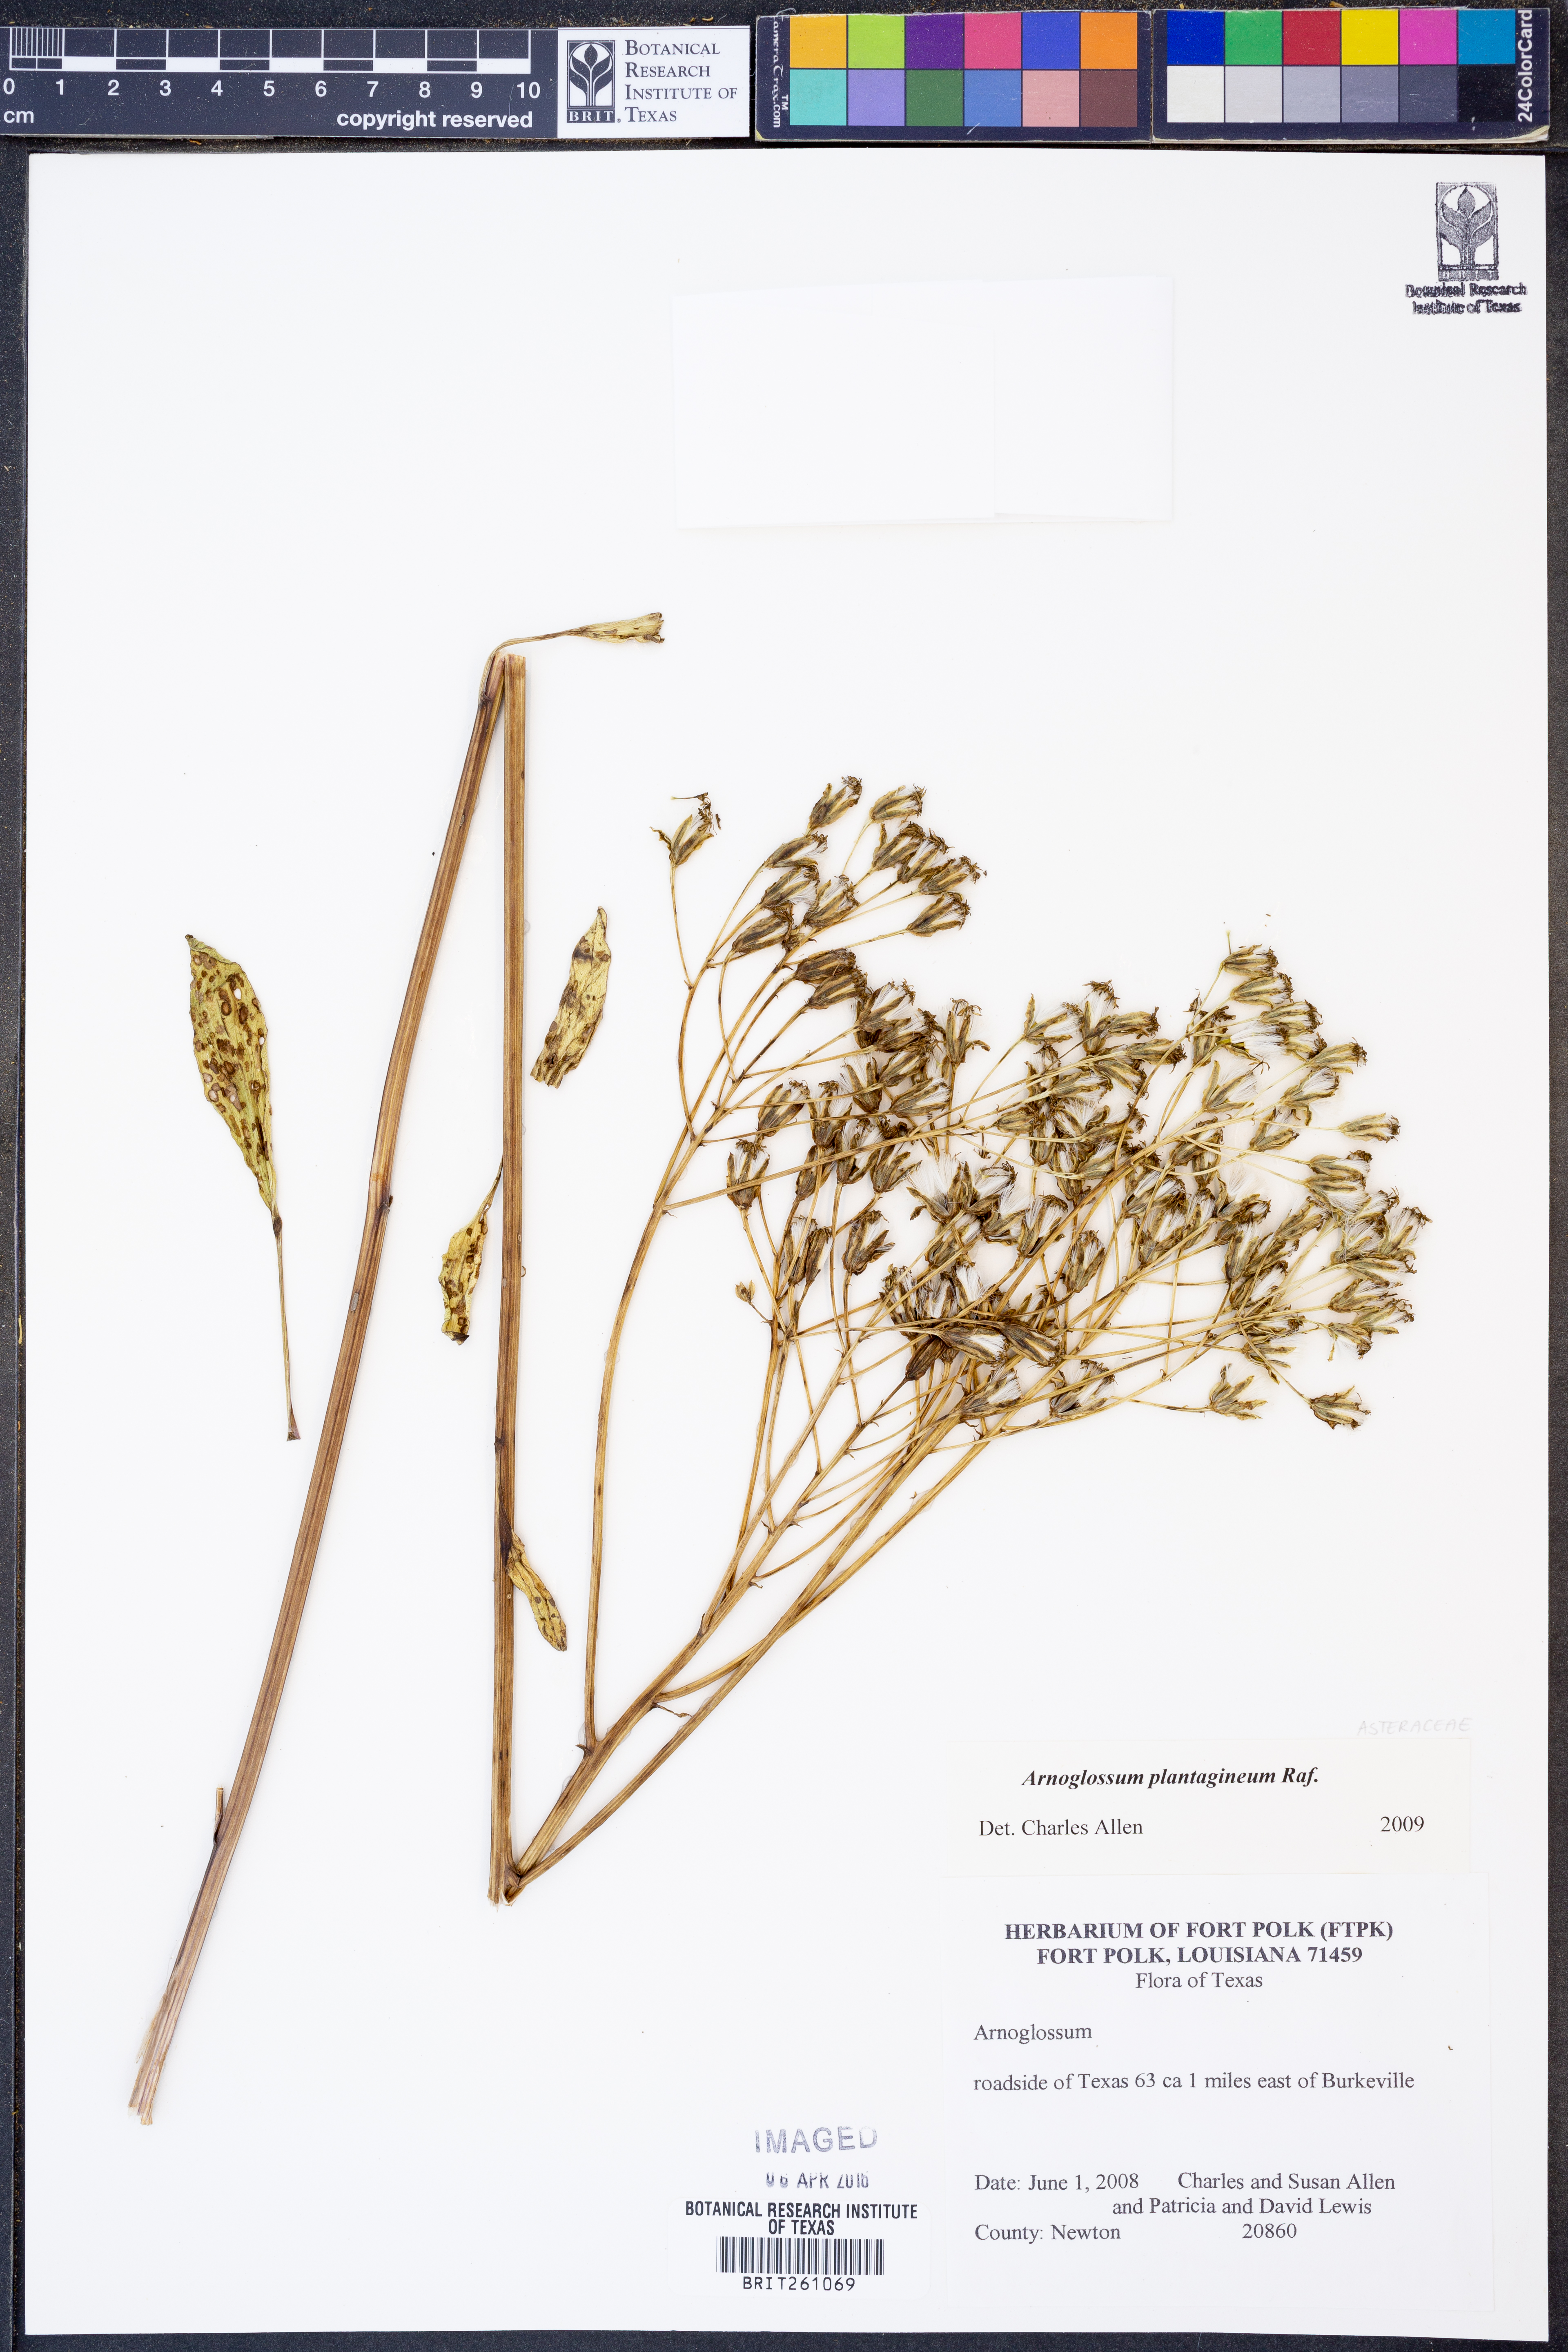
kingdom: Plantae
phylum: Tracheophyta
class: Magnoliopsida
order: Asterales
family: Asteraceae
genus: Arnoglossum
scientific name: Arnoglossum plantagineum
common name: Groove-stemmed indian-plantain
